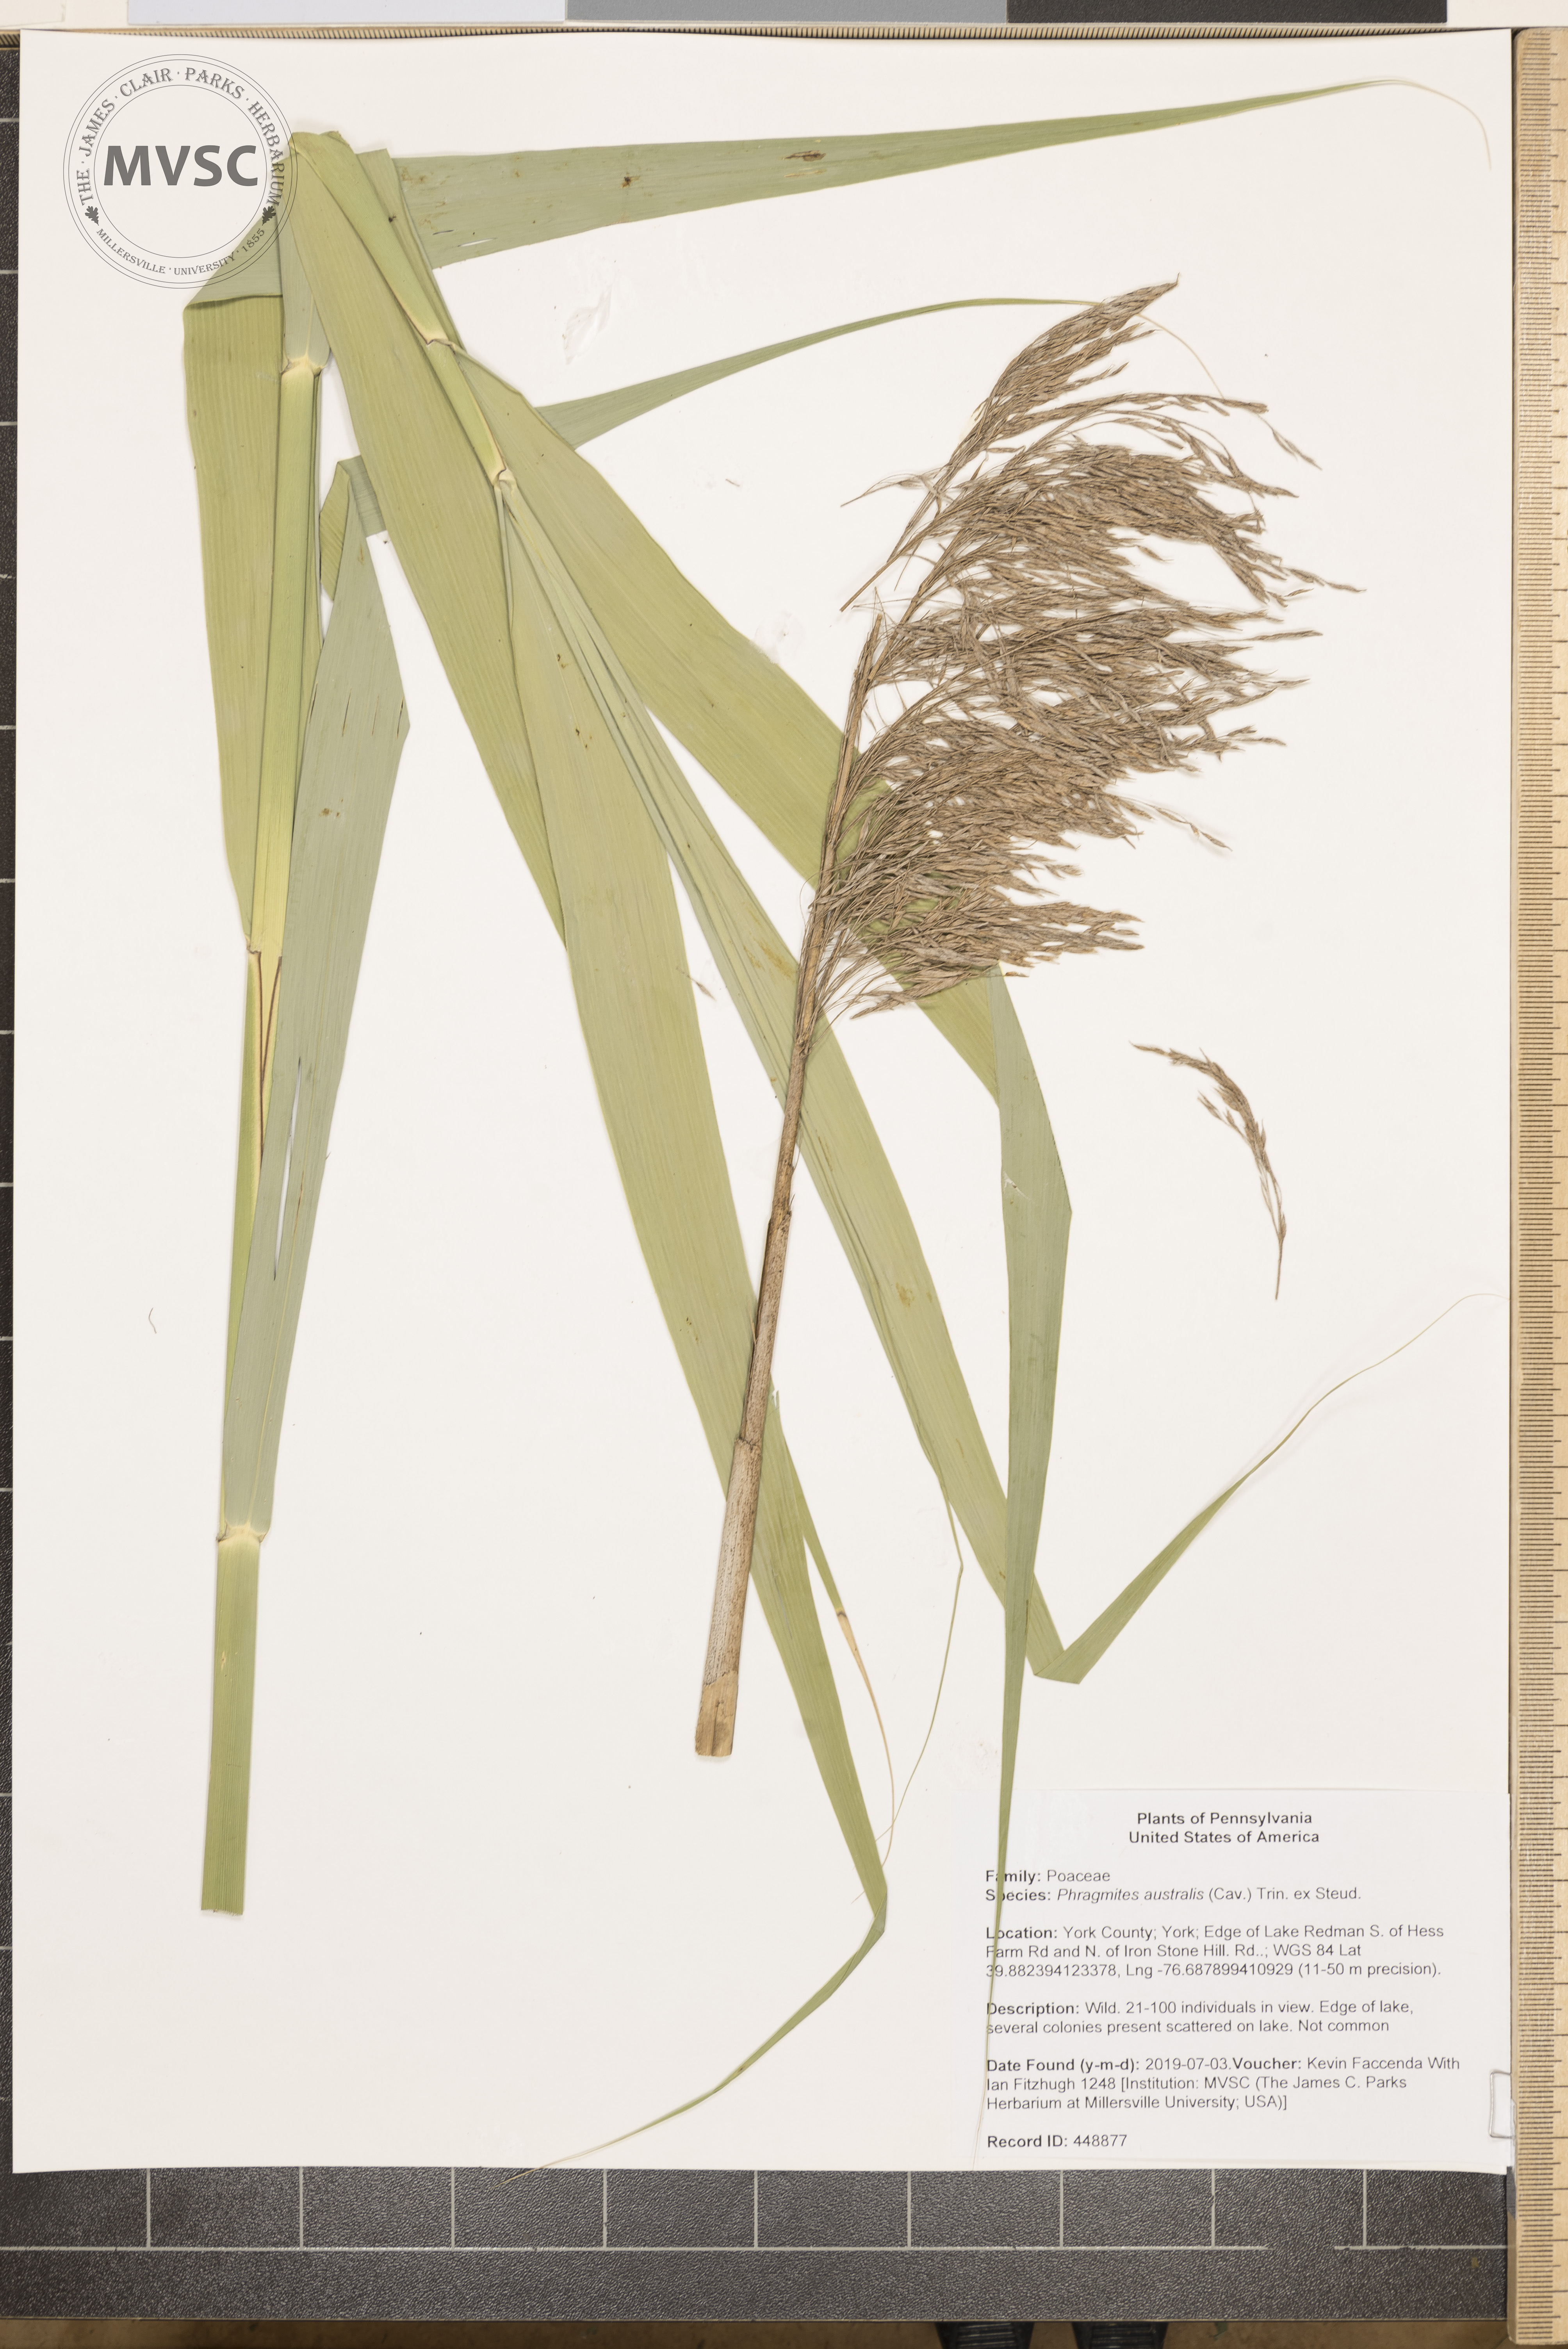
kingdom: Plantae
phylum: Tracheophyta
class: Liliopsida
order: Poales
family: Poaceae
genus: Phragmites
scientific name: Phragmites australis
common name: Common reed
